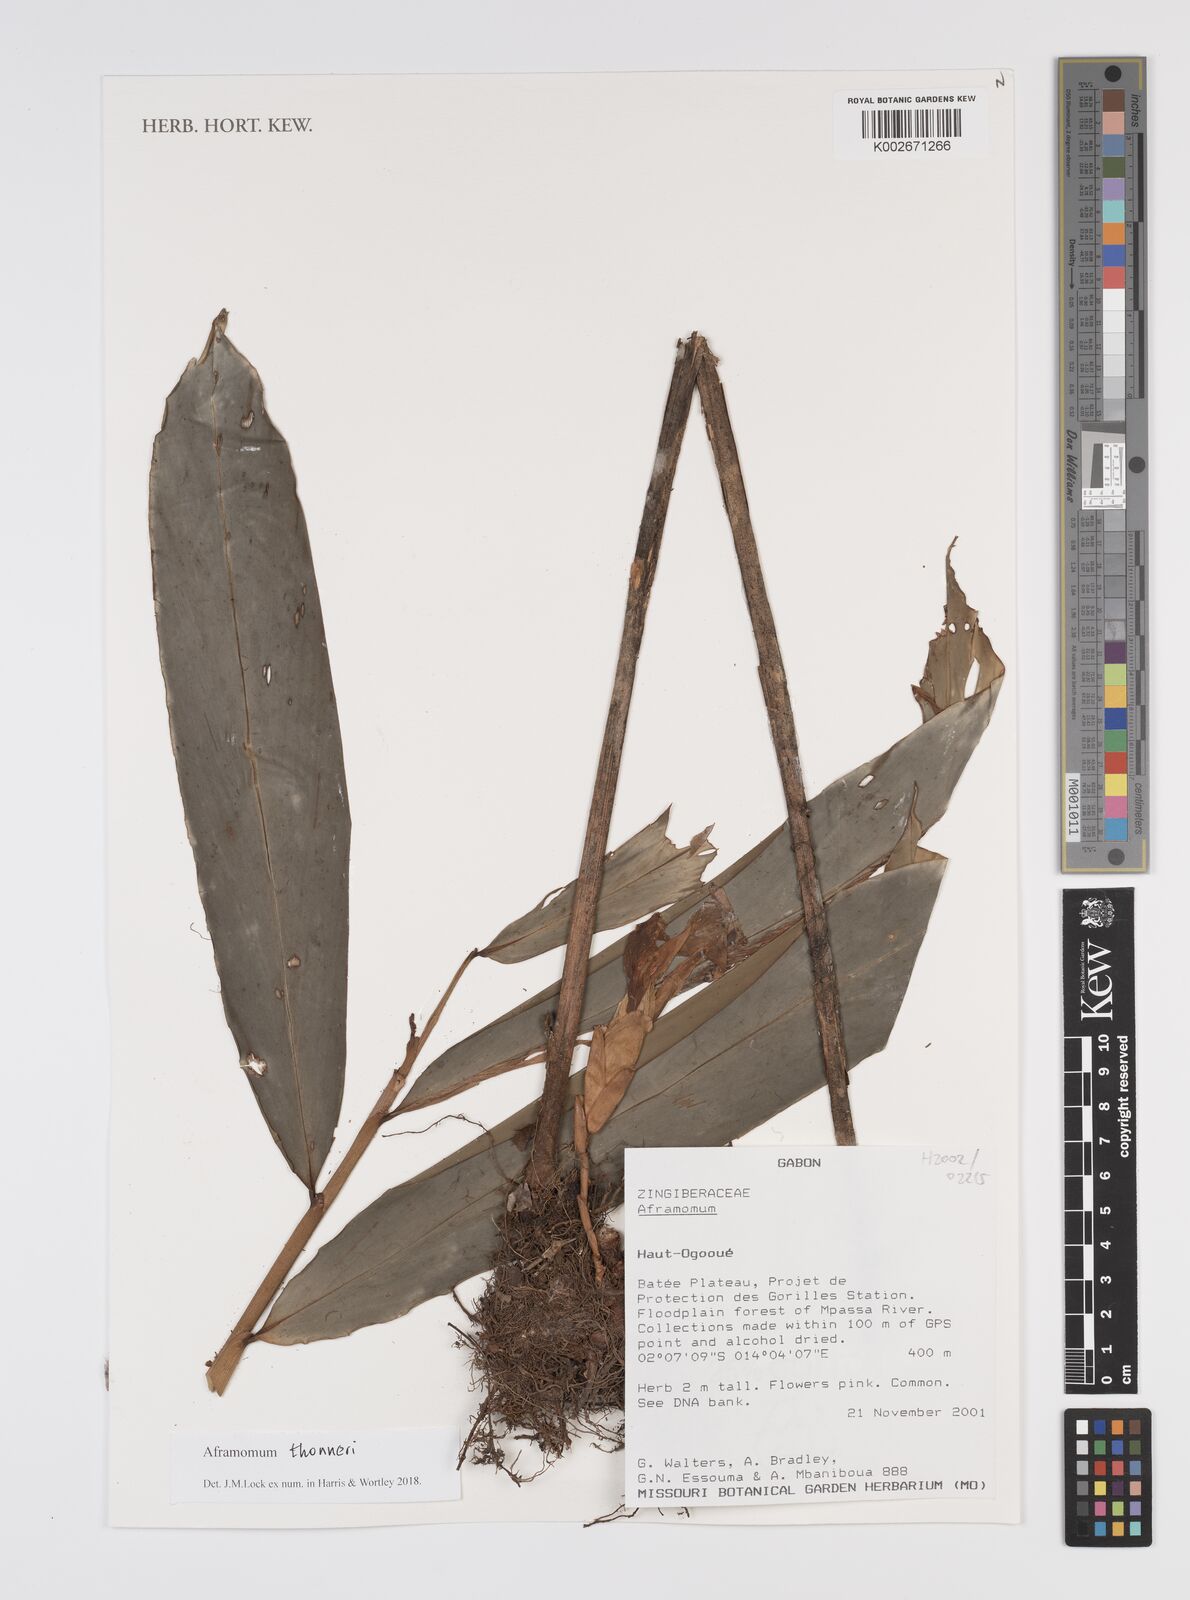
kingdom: Plantae
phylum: Tracheophyta
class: Liliopsida
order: Zingiberales
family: Zingiberaceae
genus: Aframomum
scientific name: Aframomum thonneri
